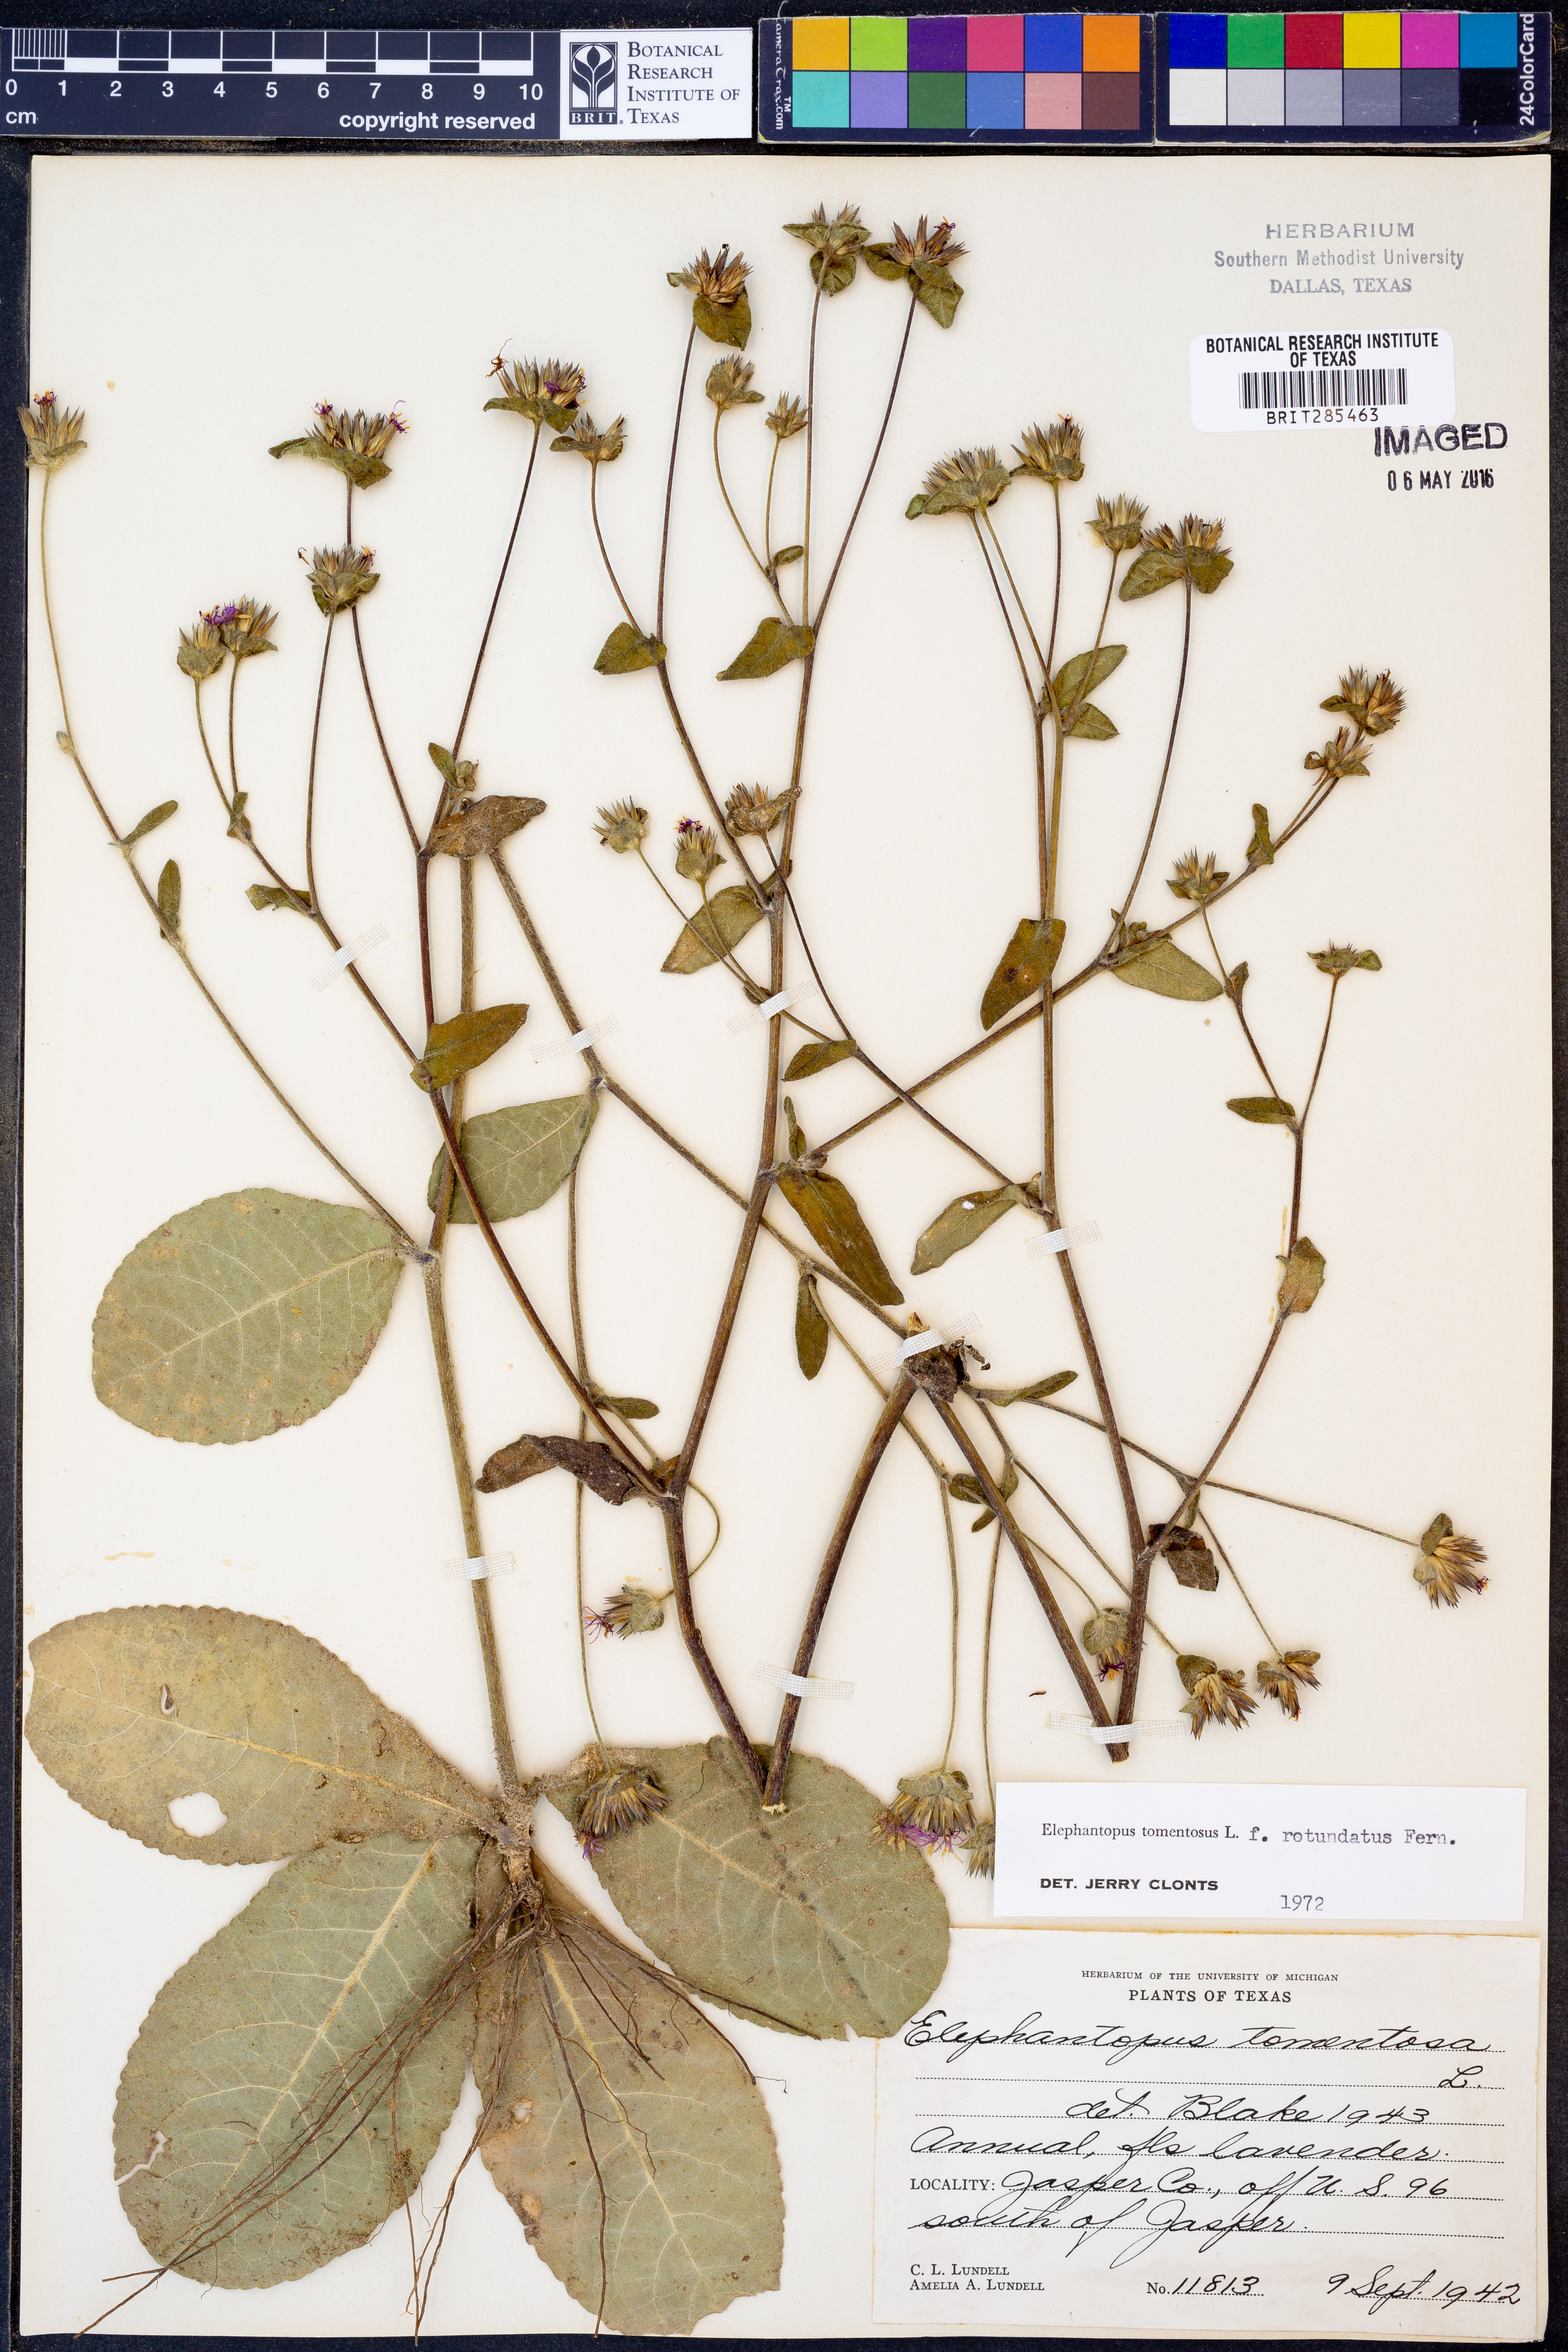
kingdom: Plantae
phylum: Tracheophyta
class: Magnoliopsida
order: Asterales
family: Asteraceae
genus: Elephantopus
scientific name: Elephantopus tomentosus
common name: Tobacco-weed
